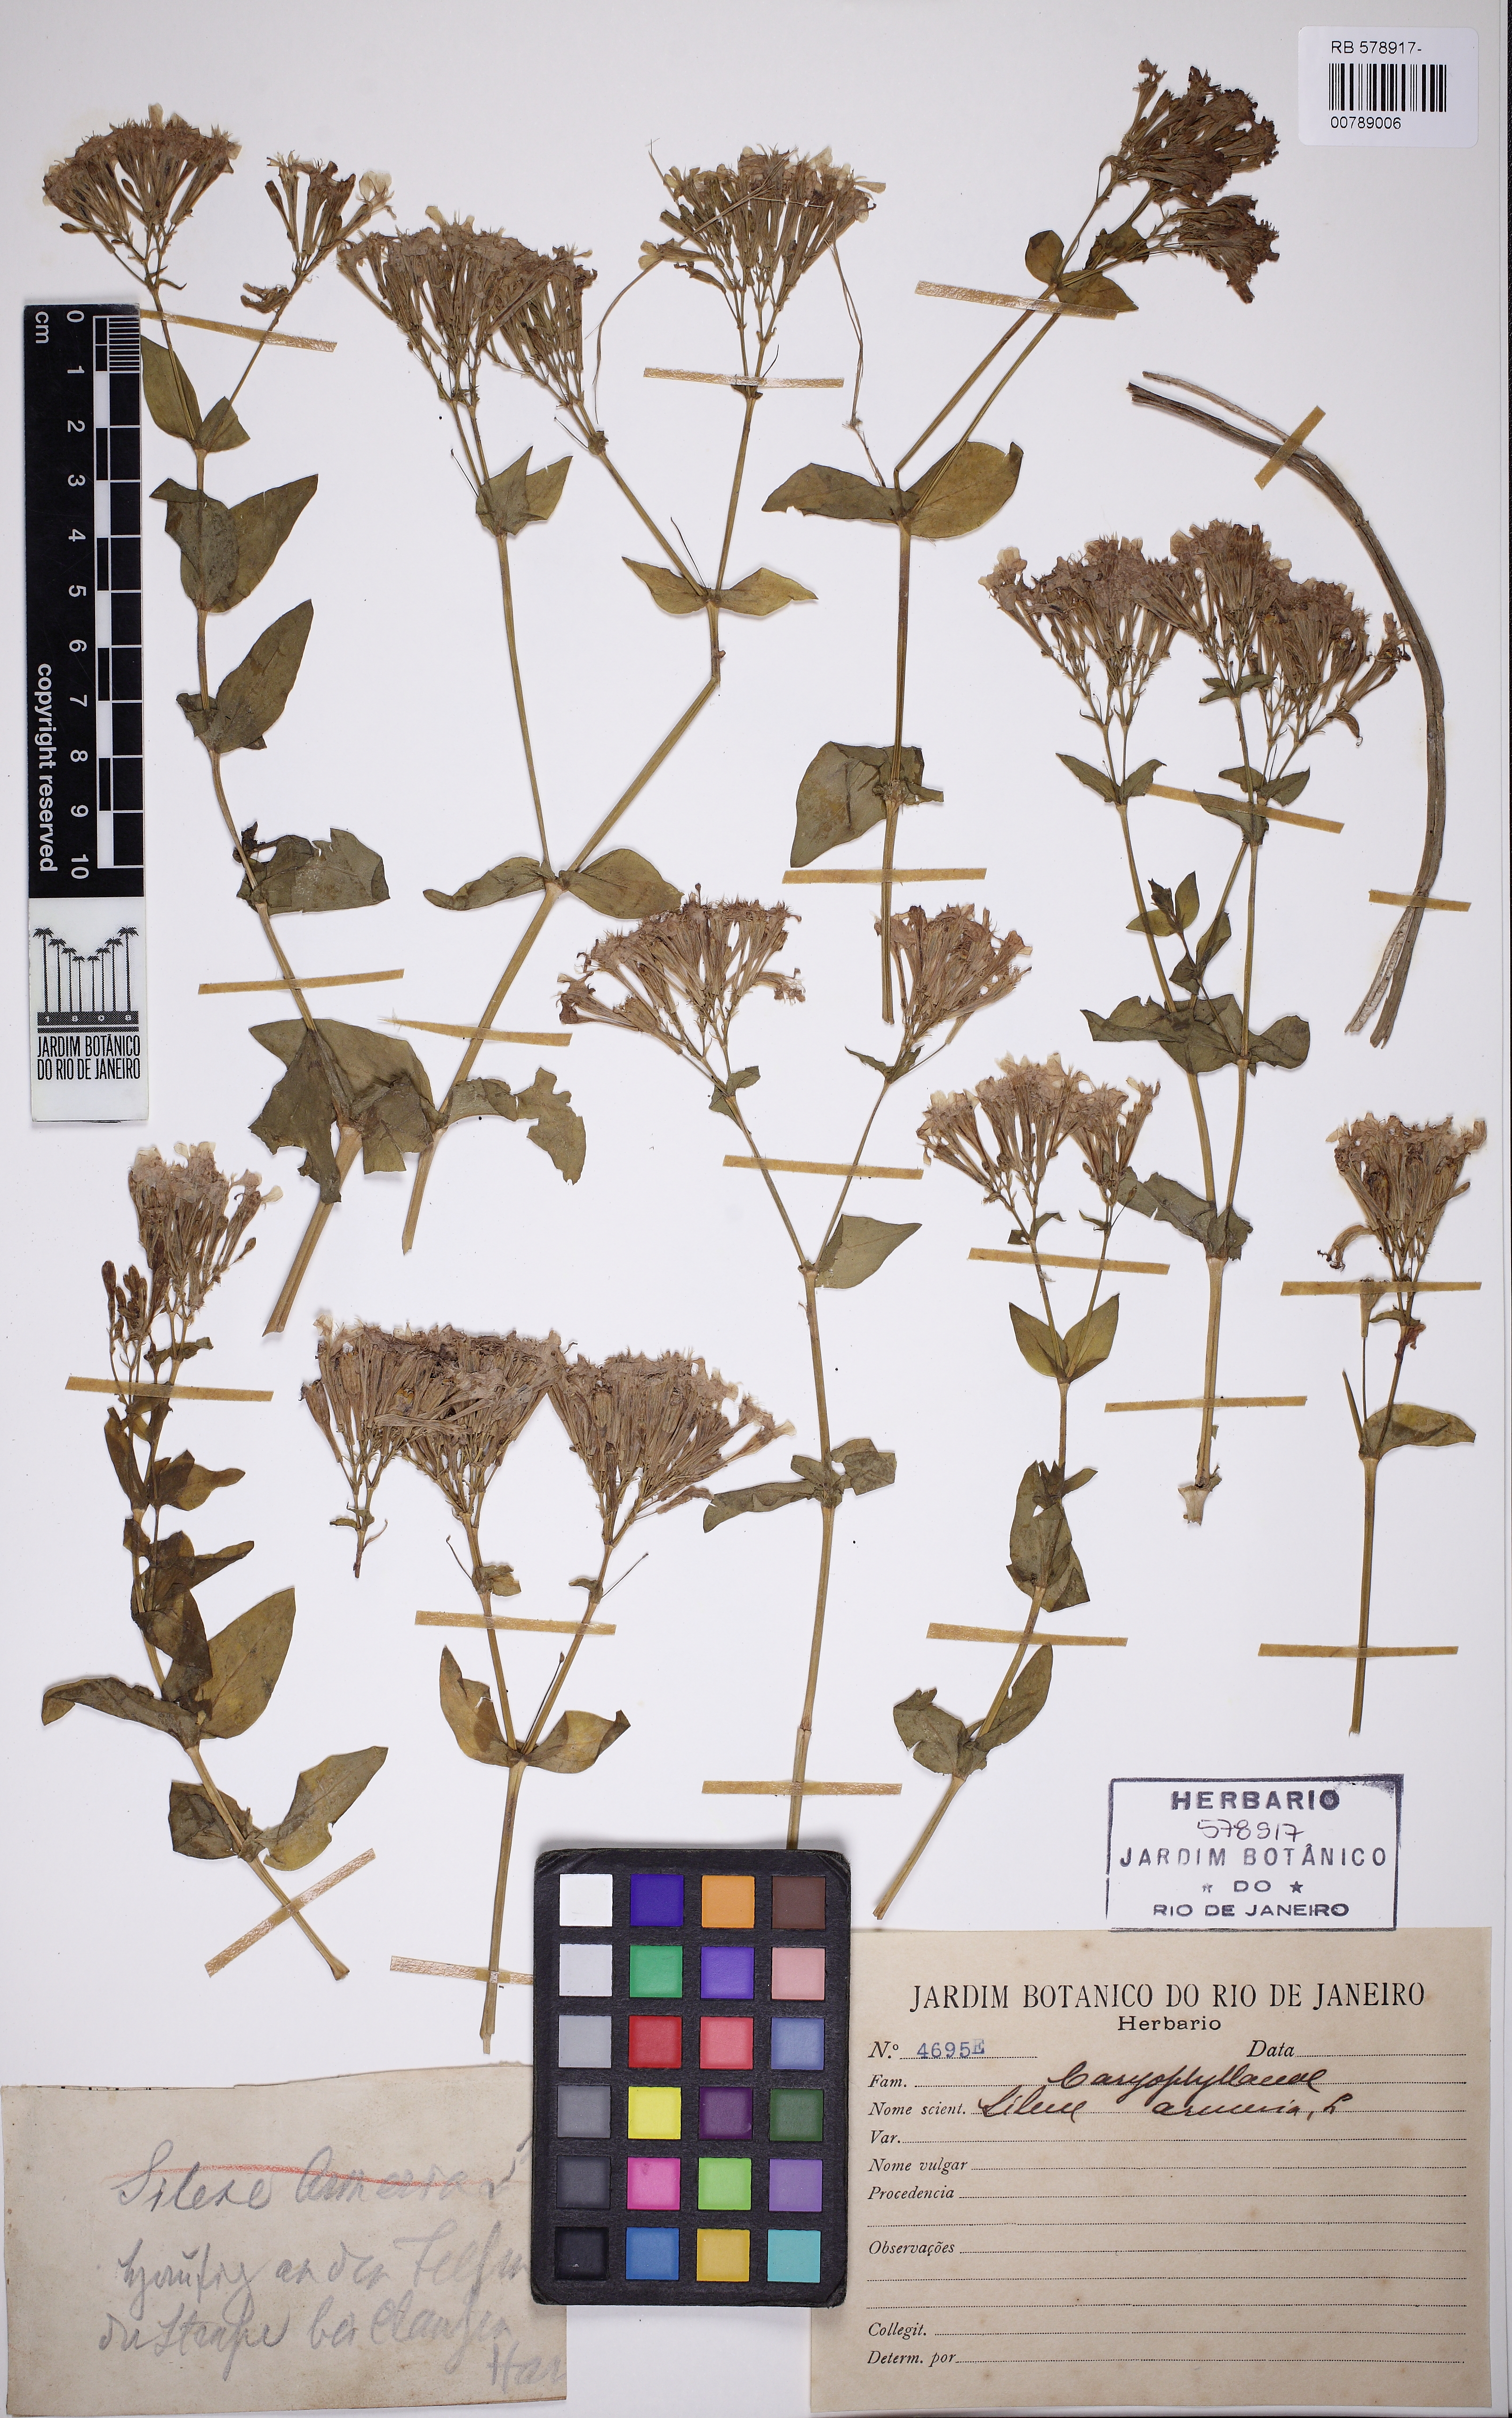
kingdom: Plantae
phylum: Tracheophyta
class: Magnoliopsida
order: Caryophyllales
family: Caryophyllaceae
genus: Atocion
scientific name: Atocion armeria
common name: Sweet william catchfly
